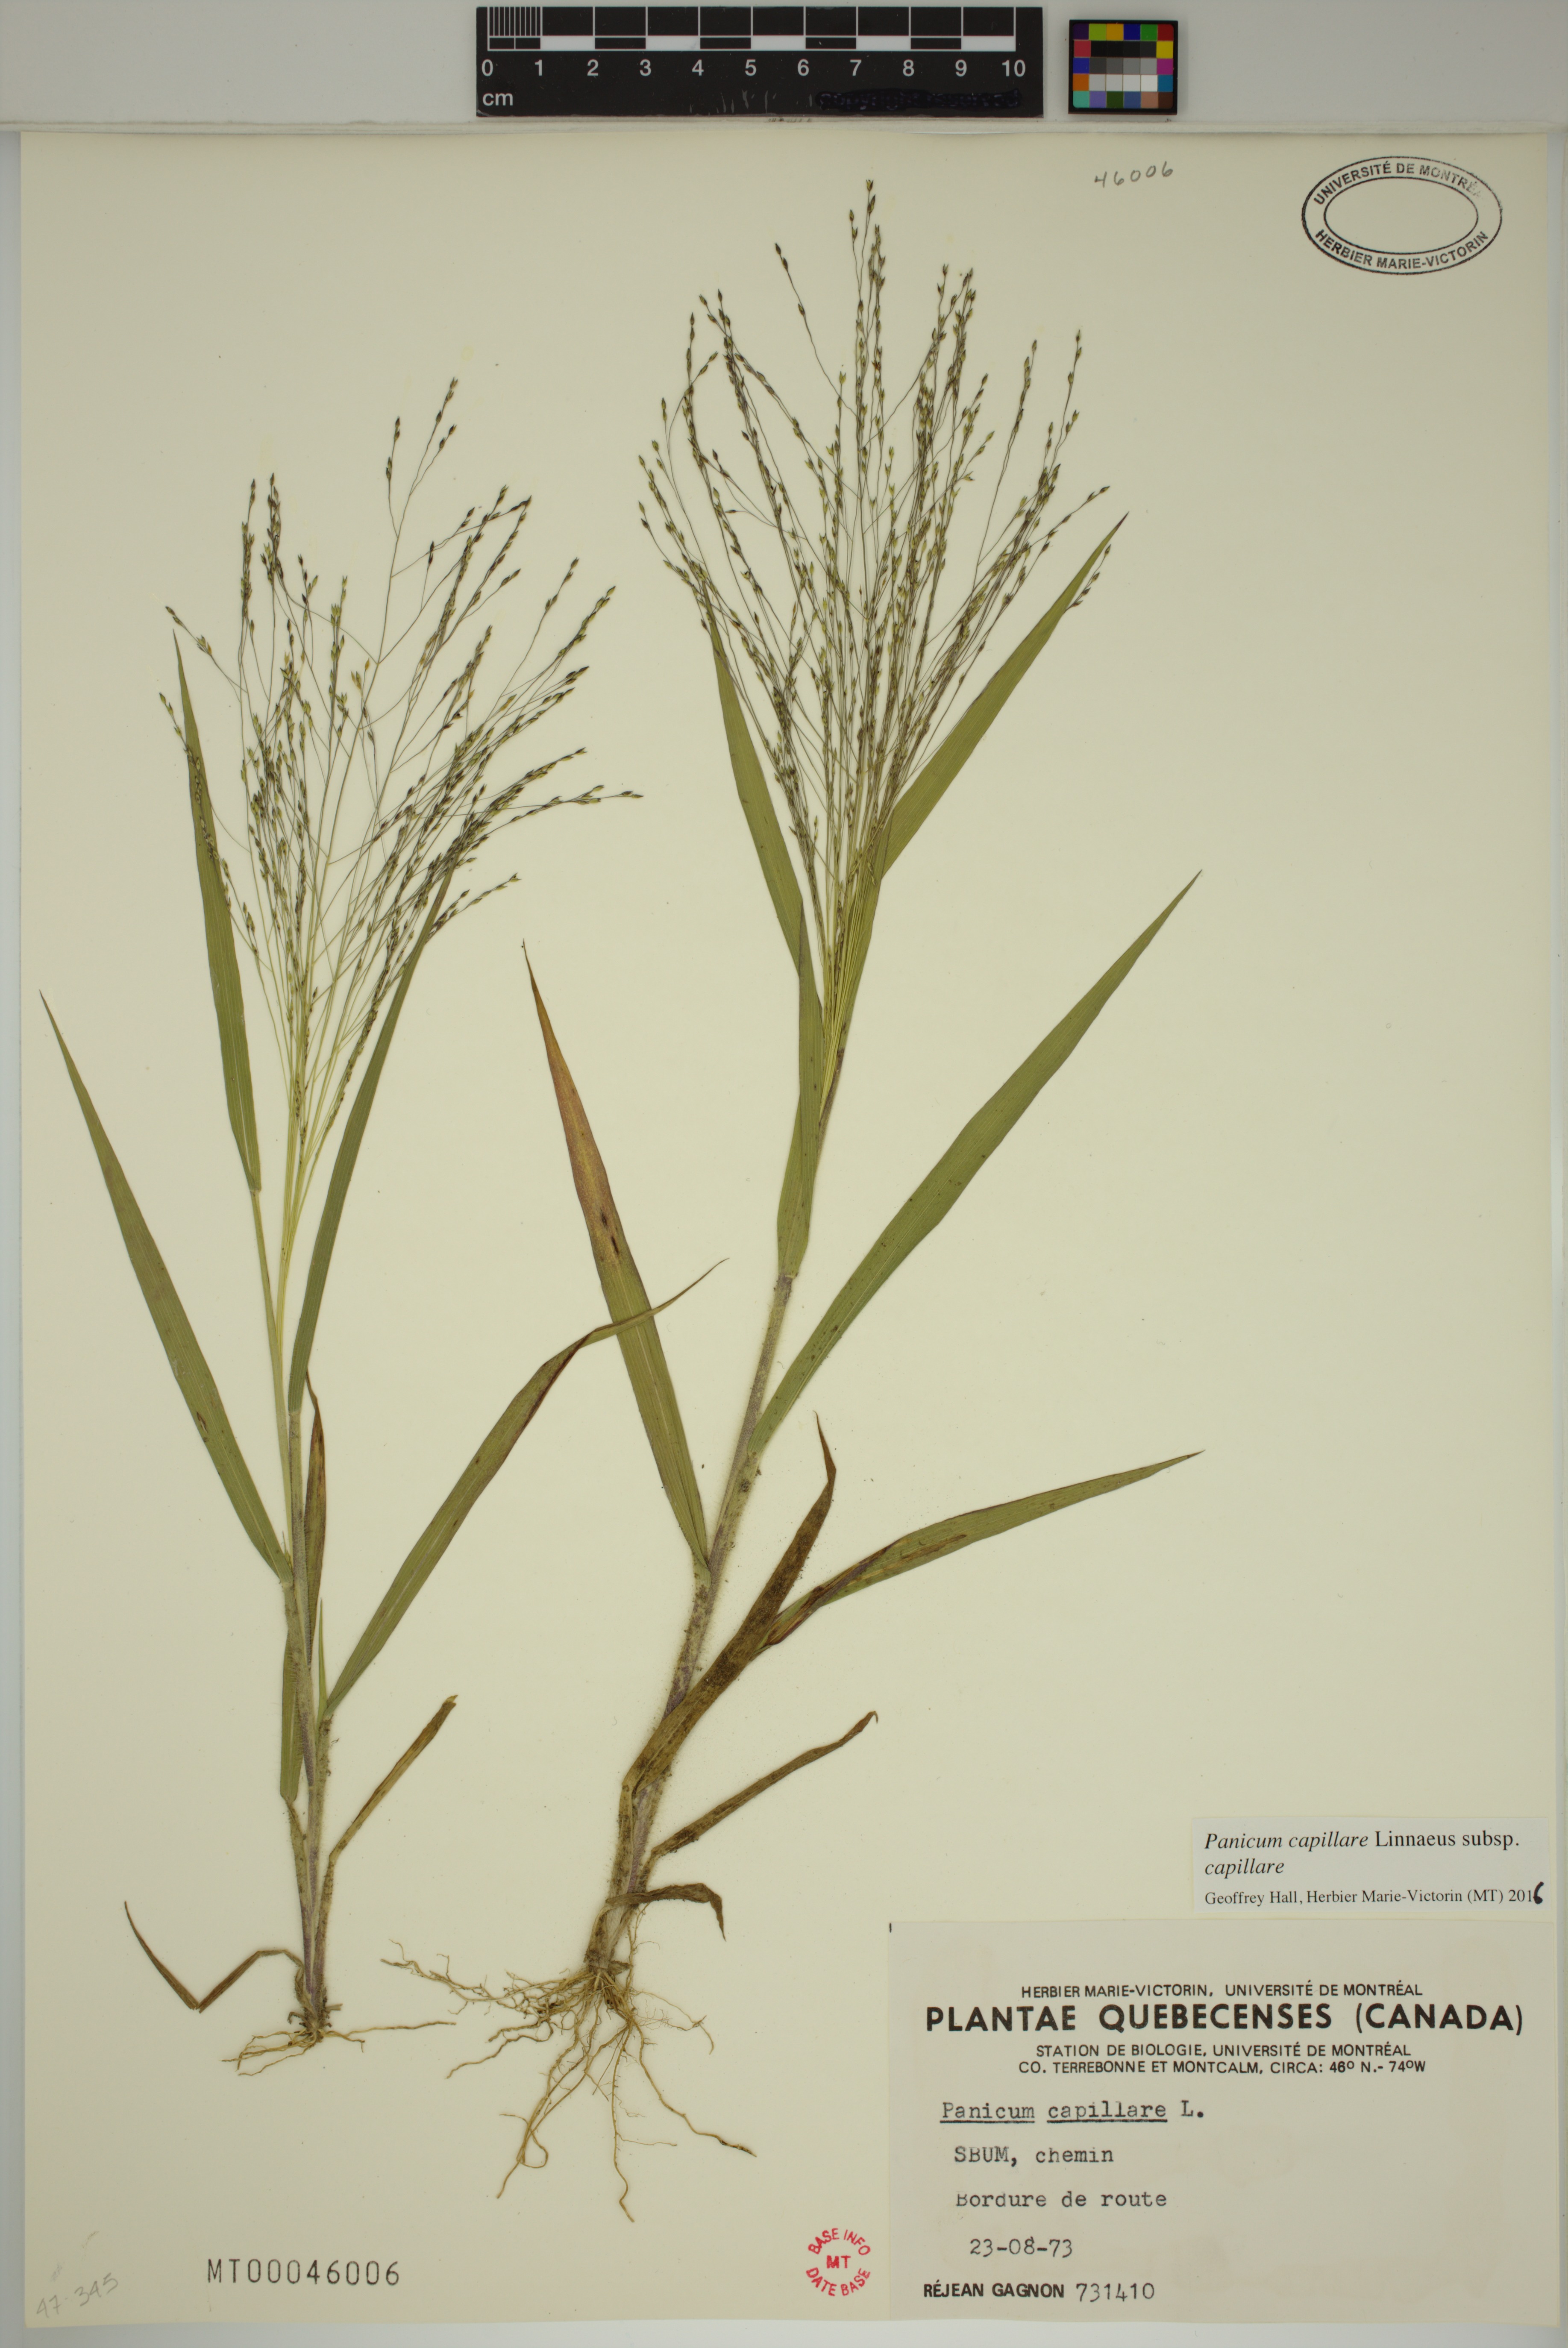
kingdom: Plantae
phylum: Tracheophyta
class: Liliopsida
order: Poales
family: Poaceae
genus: Panicum
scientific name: Panicum capillare
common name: Witch-grass
